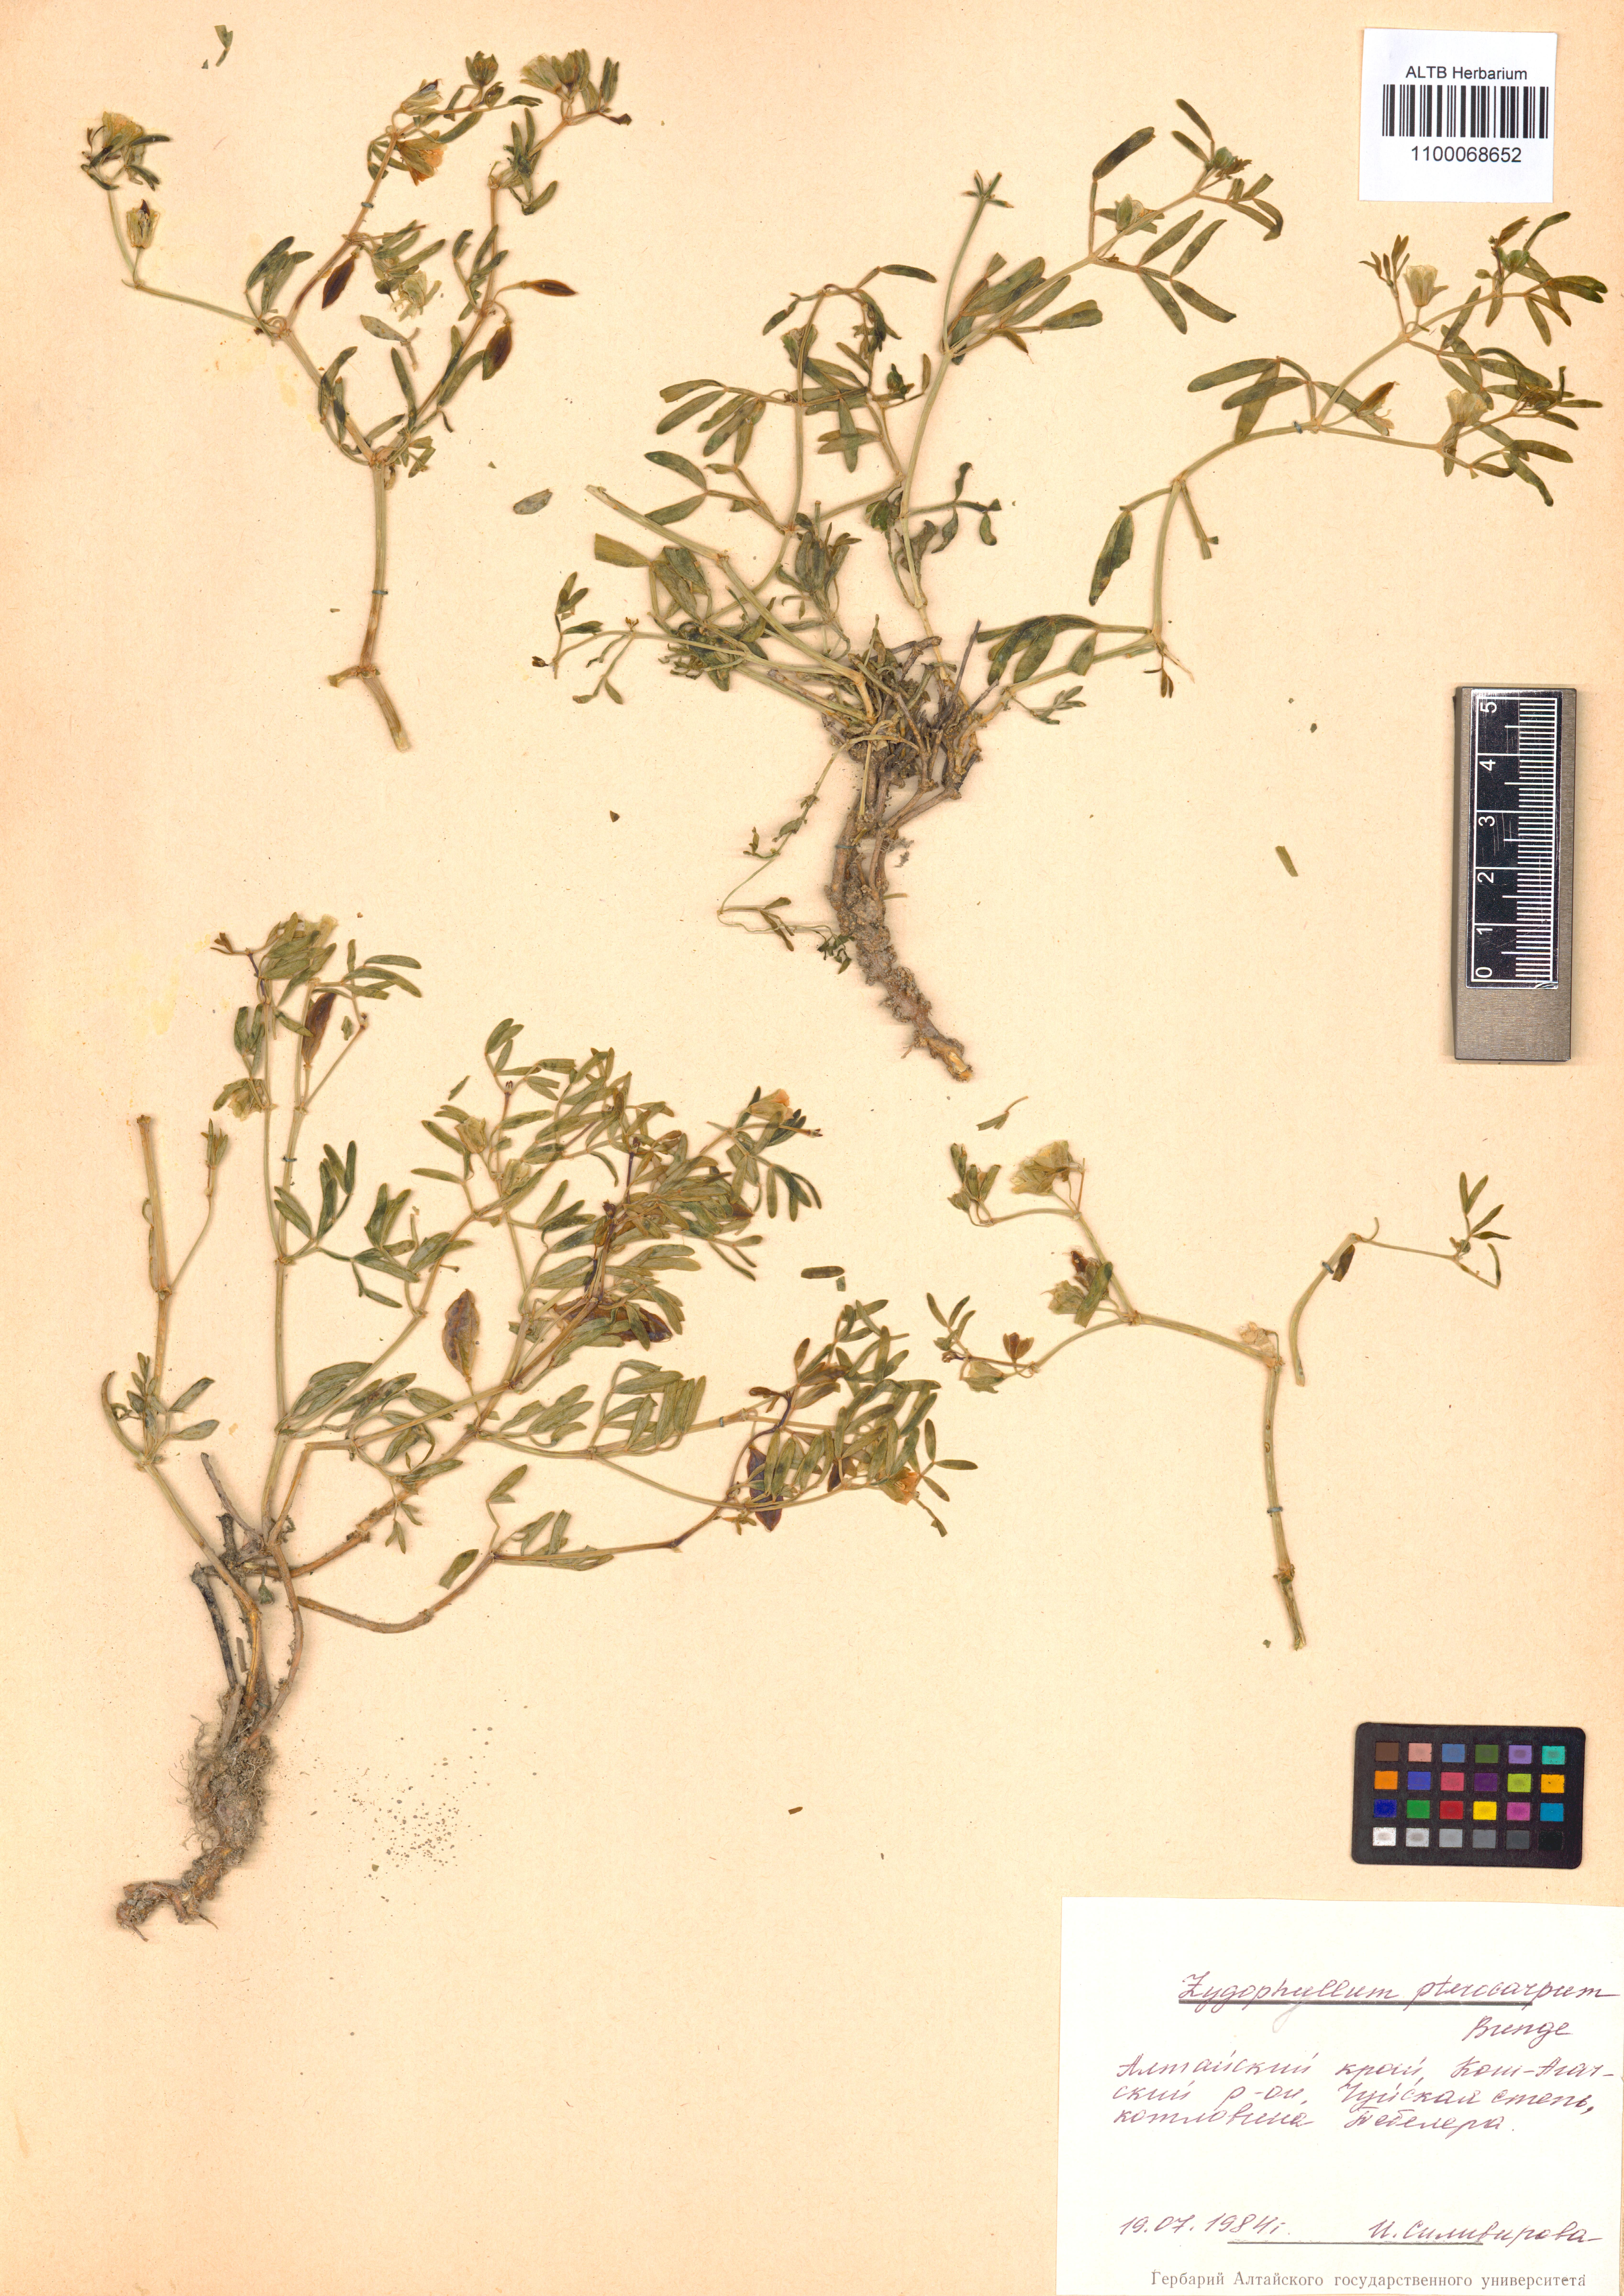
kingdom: Plantae
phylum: Tracheophyta
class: Magnoliopsida
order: Zygophyllales
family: Zygophyllaceae
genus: Zygophyllum
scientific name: Zygophyllum pterocarpum
